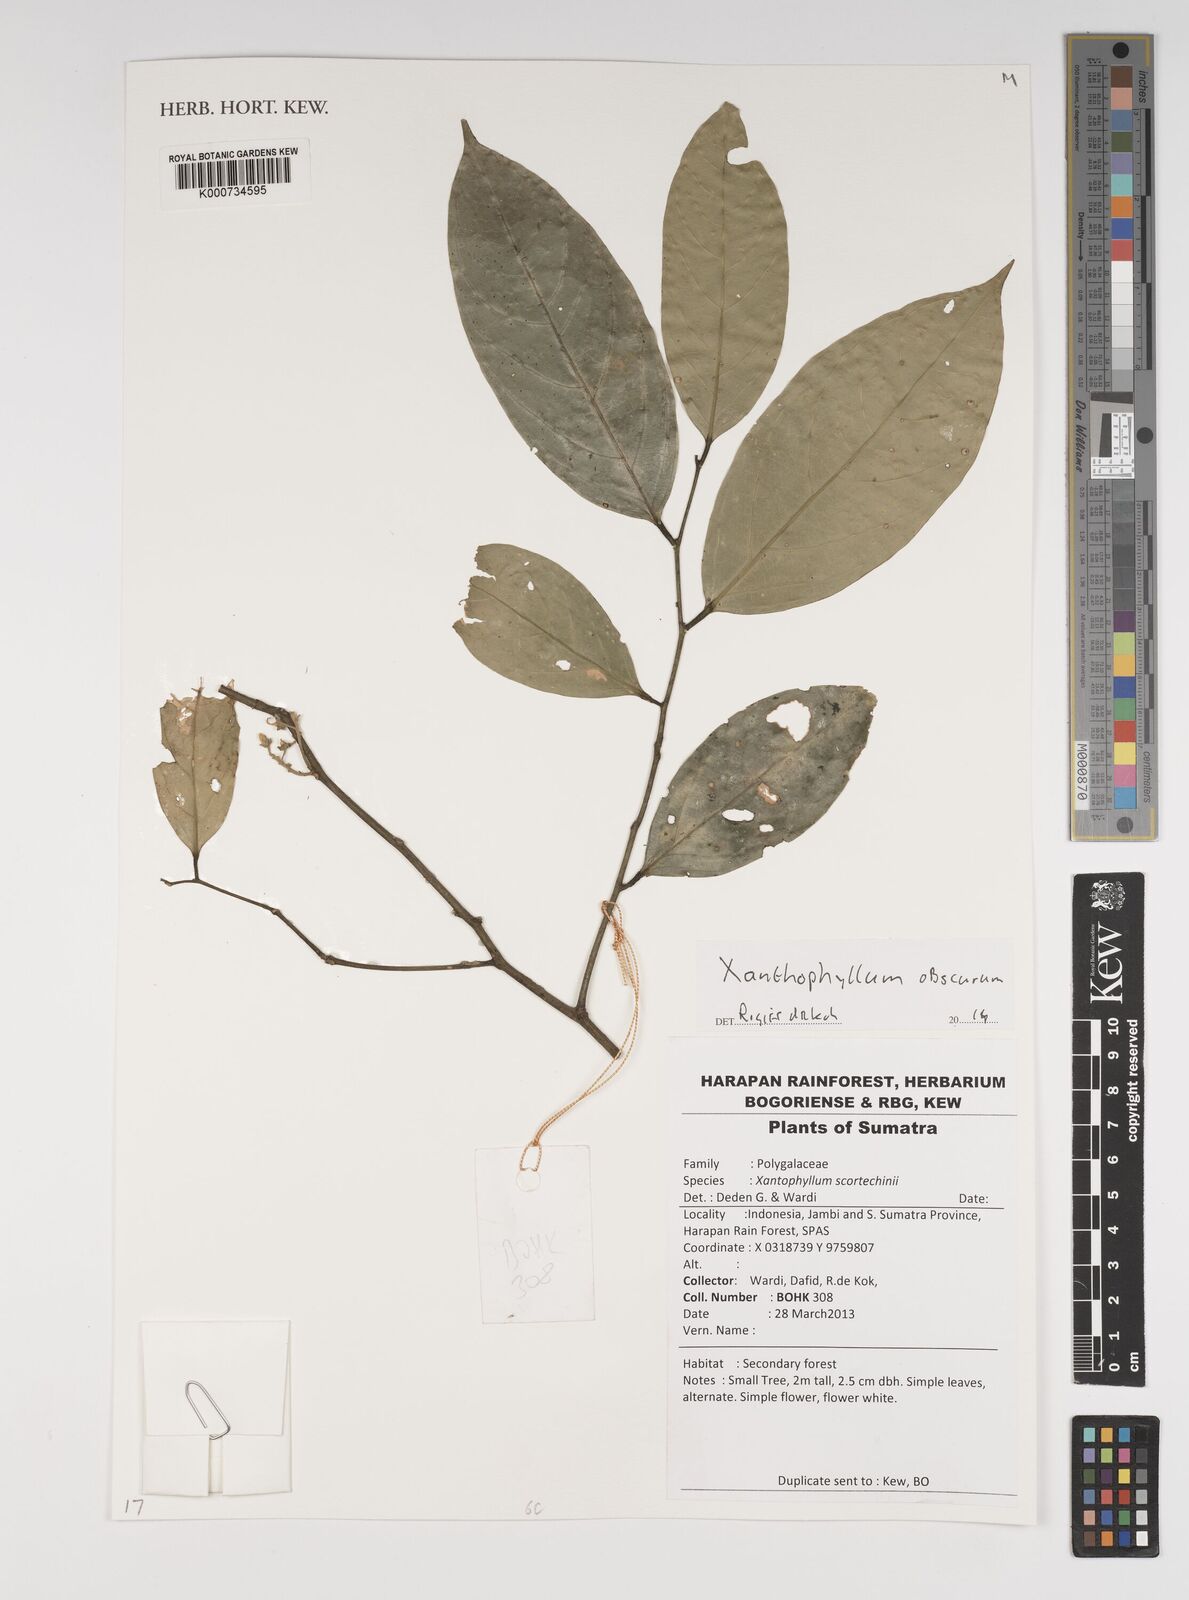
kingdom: Plantae
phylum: Tracheophyta
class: Magnoliopsida
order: Fabales
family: Polygalaceae
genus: Xanthophyllum
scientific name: Xanthophyllum obscurum
